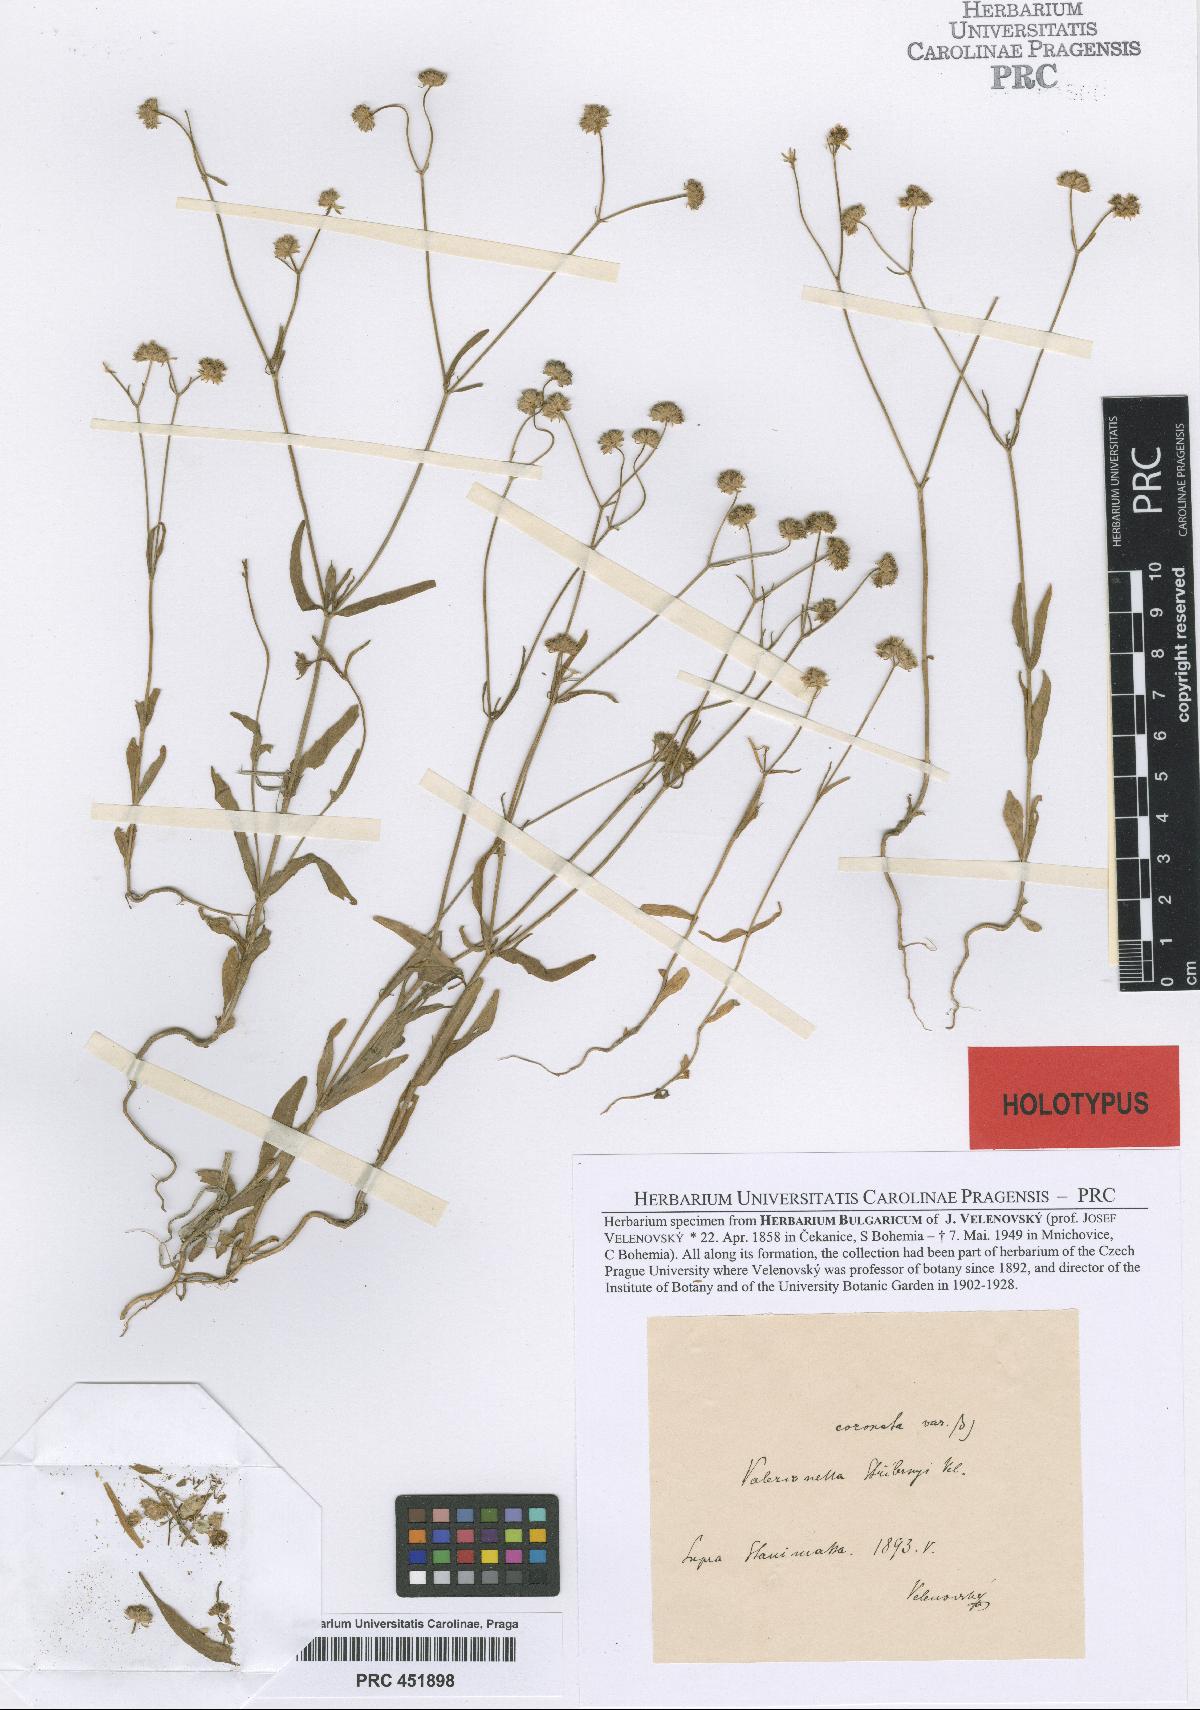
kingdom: Plantae
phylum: Tracheophyta
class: Magnoliopsida
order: Dipsacales
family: Caprifoliaceae
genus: Valerianella
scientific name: Valerianella coronata
